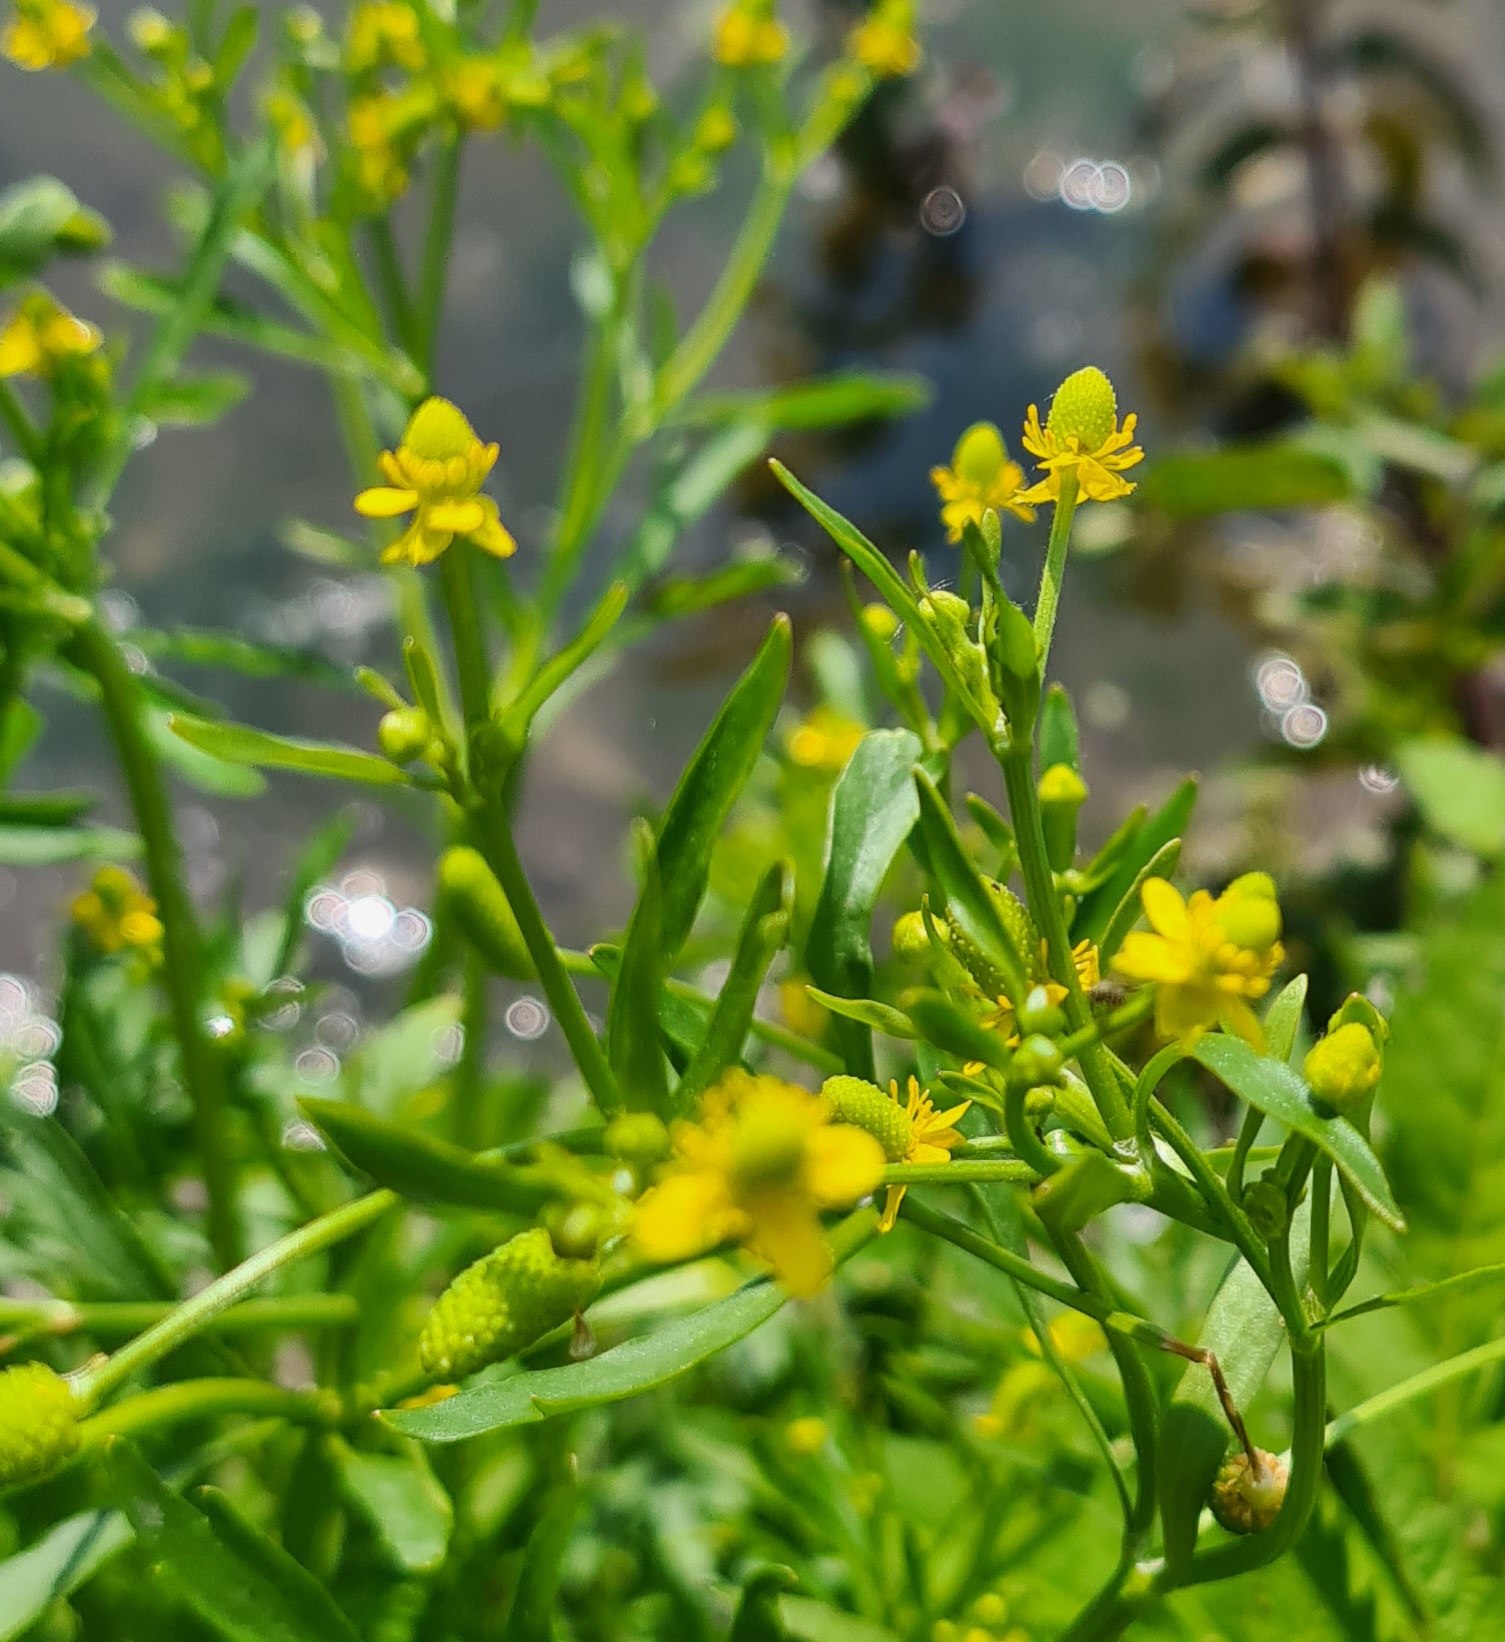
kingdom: Plantae
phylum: Tracheophyta
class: Magnoliopsida
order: Ranunculales
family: Ranunculaceae
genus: Ranunculus
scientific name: Ranunculus sceleratus
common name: Tigger-ranunkel
